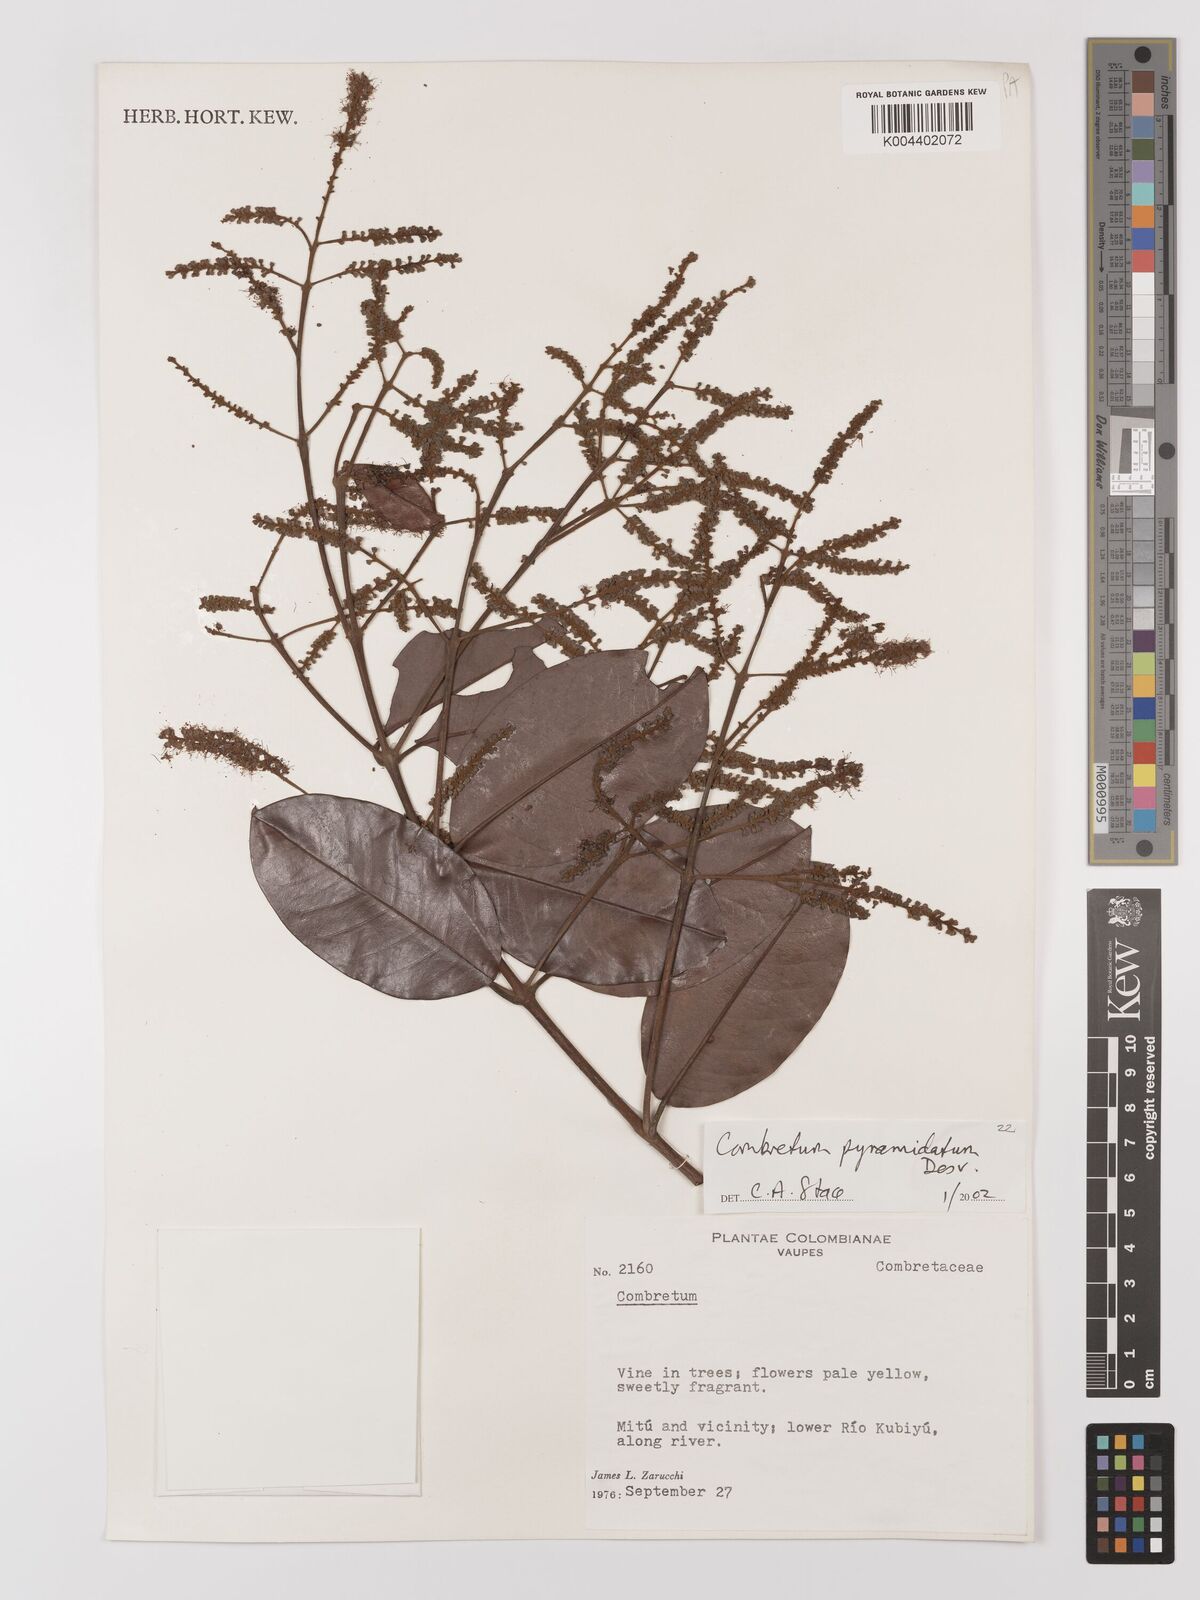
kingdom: Plantae
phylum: Tracheophyta
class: Magnoliopsida
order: Myrtales
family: Combretaceae
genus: Combretum
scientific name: Combretum pyramidatum
